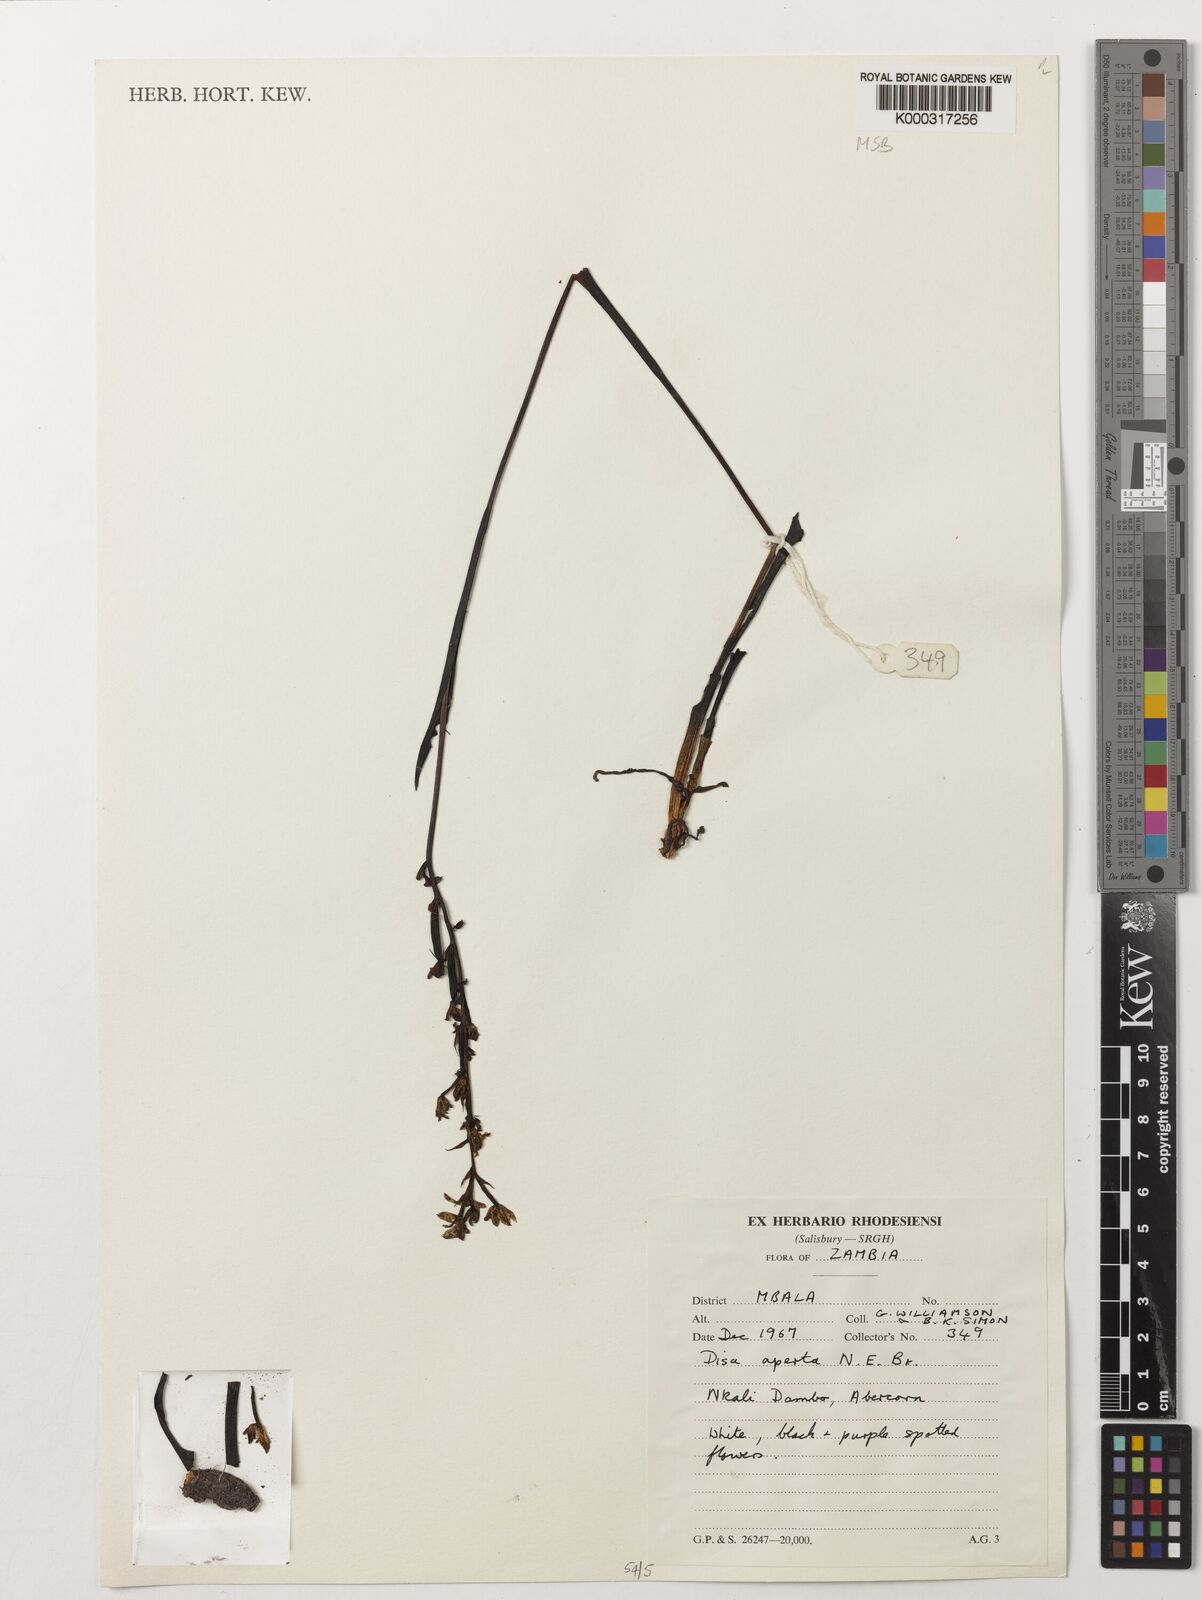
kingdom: Plantae
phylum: Tracheophyta
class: Liliopsida
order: Asparagales
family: Orchidaceae
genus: Disa
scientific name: Disa aperta
